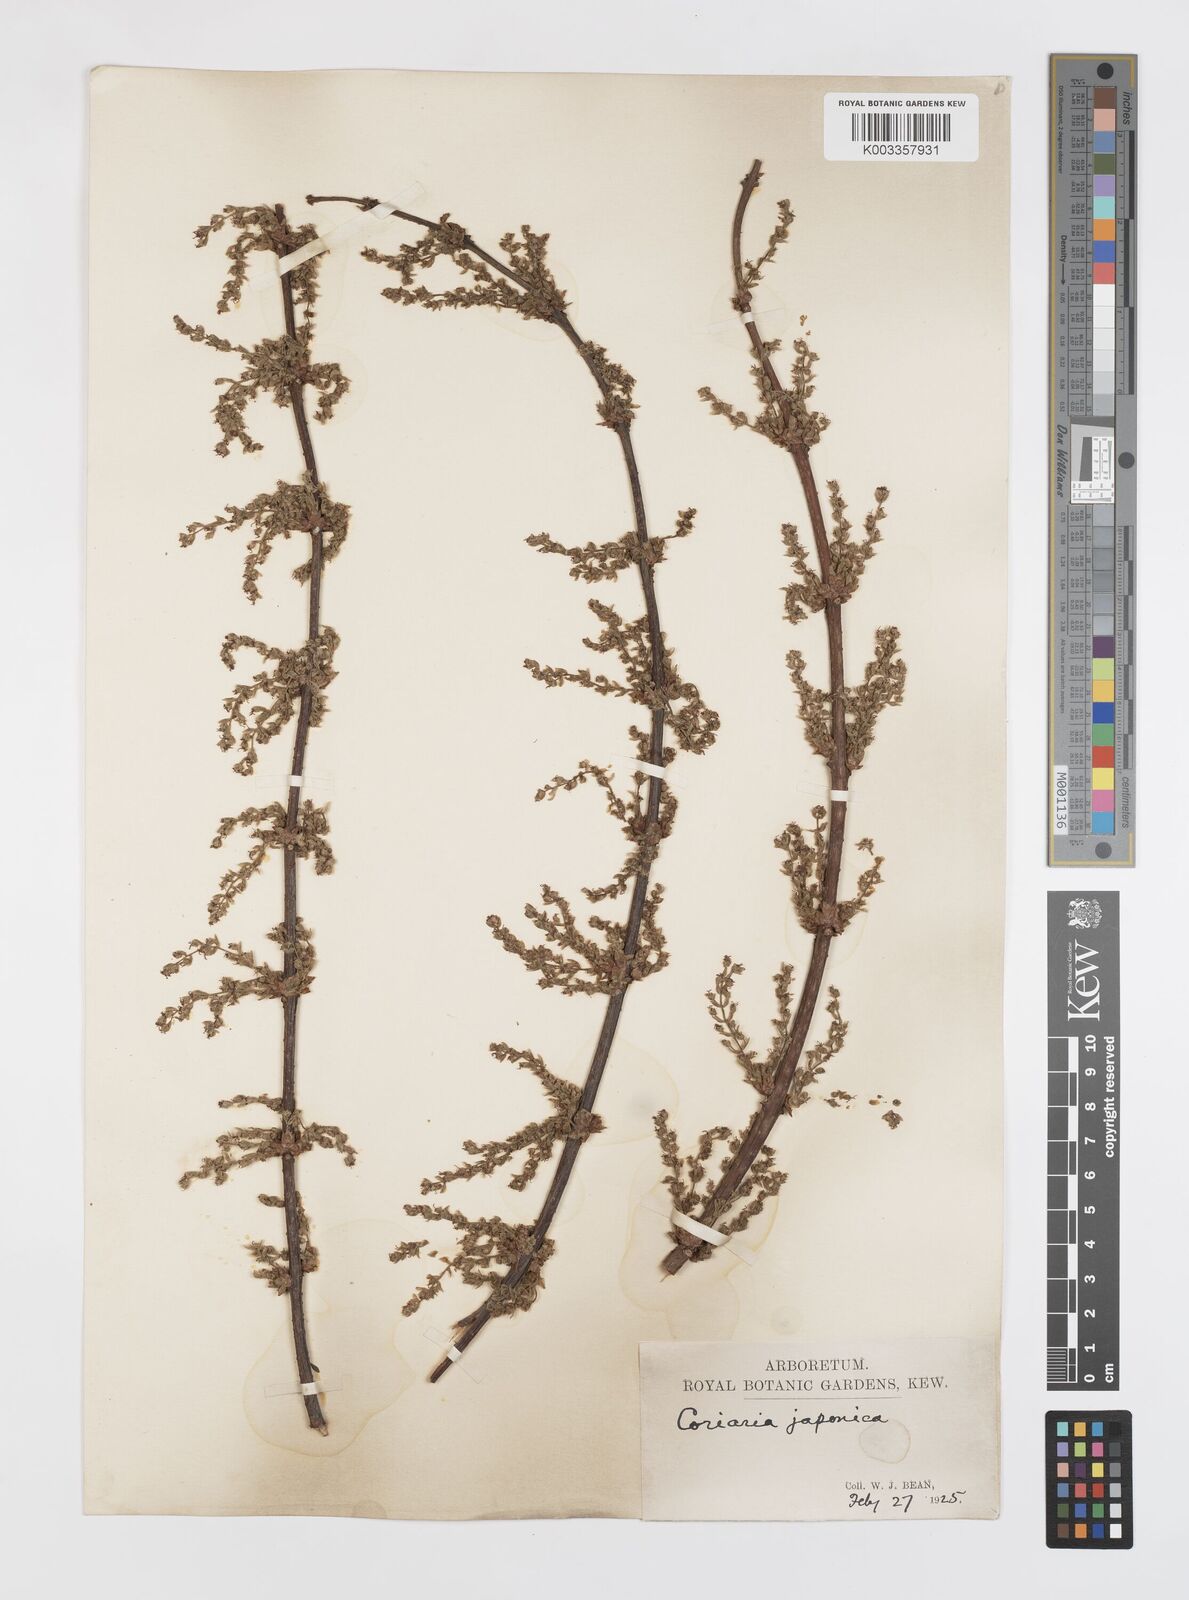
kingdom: Plantae
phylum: Tracheophyta
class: Magnoliopsida
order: Cucurbitales
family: Coriariaceae
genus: Coriaria
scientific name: Coriaria
